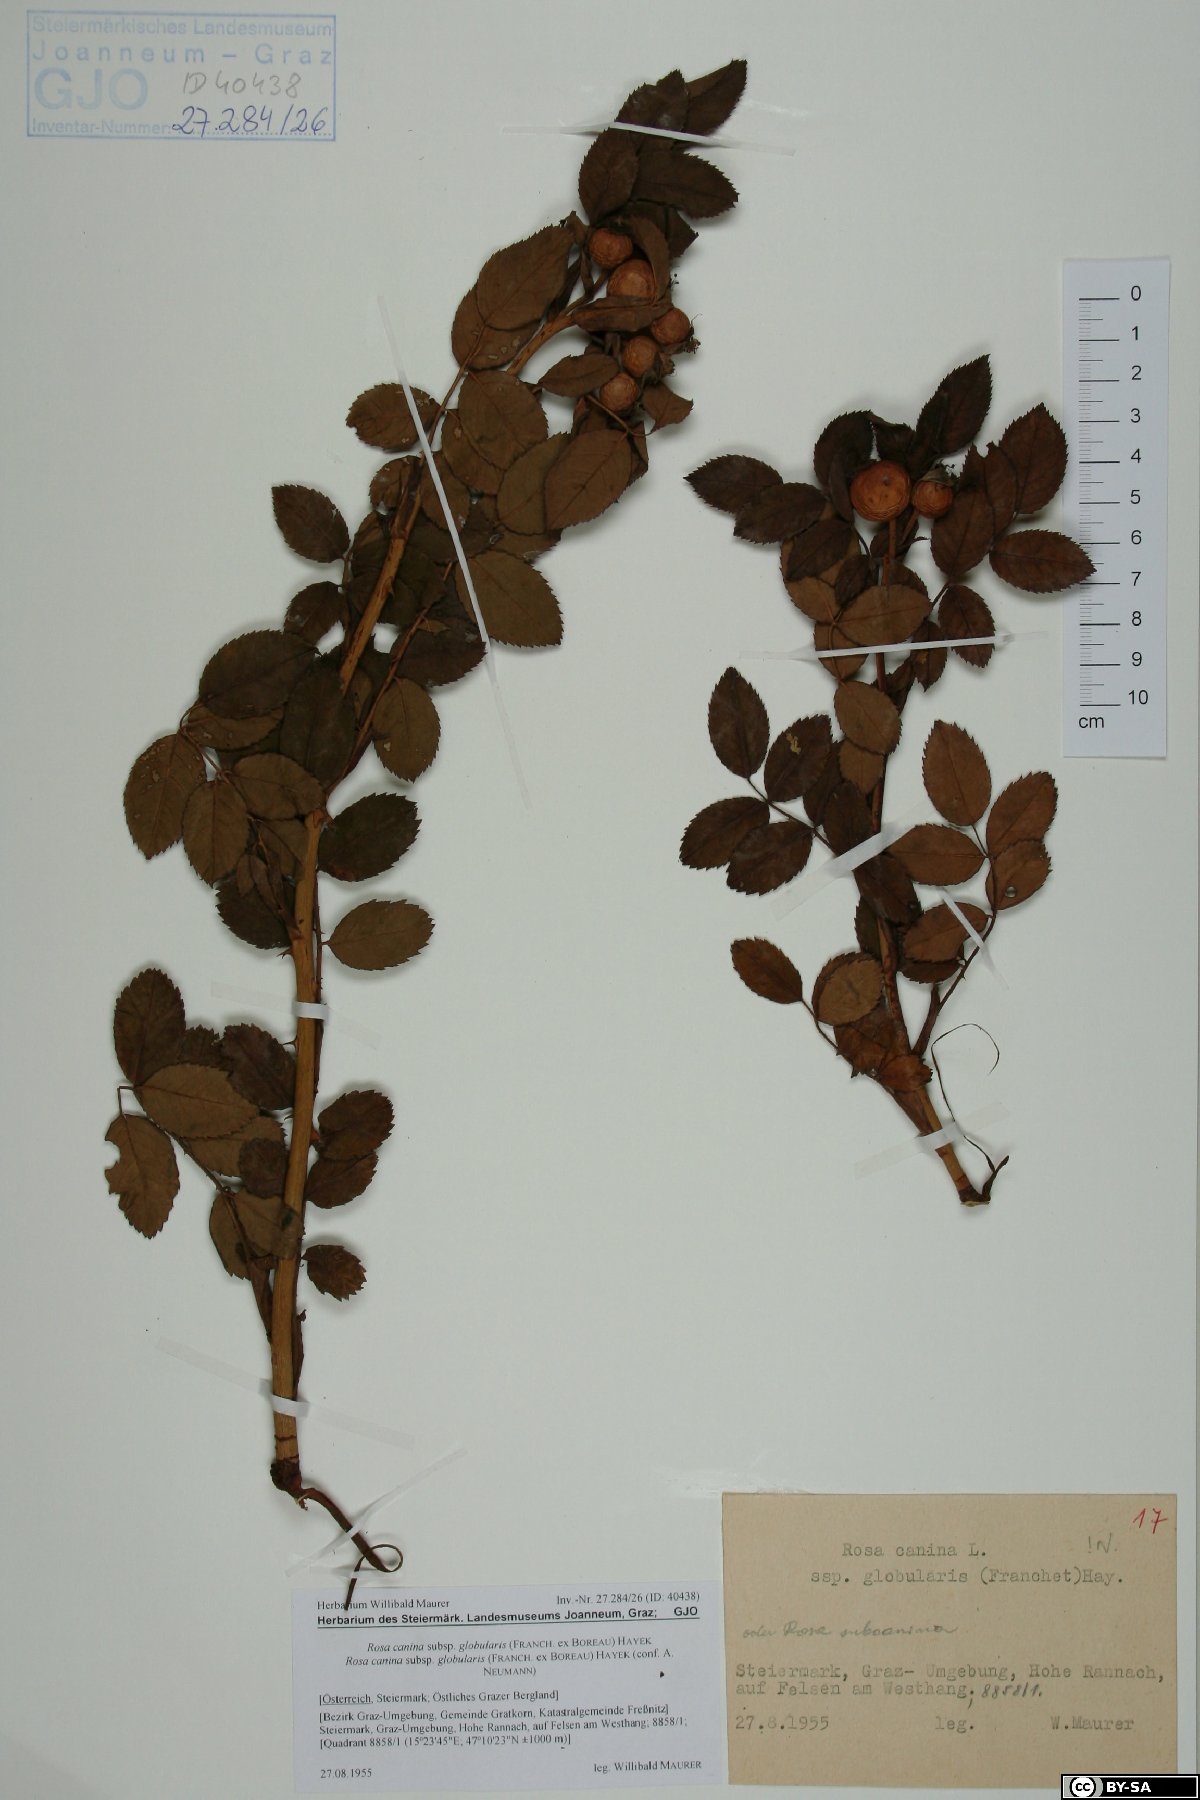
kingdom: Plantae
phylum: Tracheophyta
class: Magnoliopsida
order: Rosales
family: Rosaceae
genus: Rosa
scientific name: Rosa canina
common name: Dog rose
